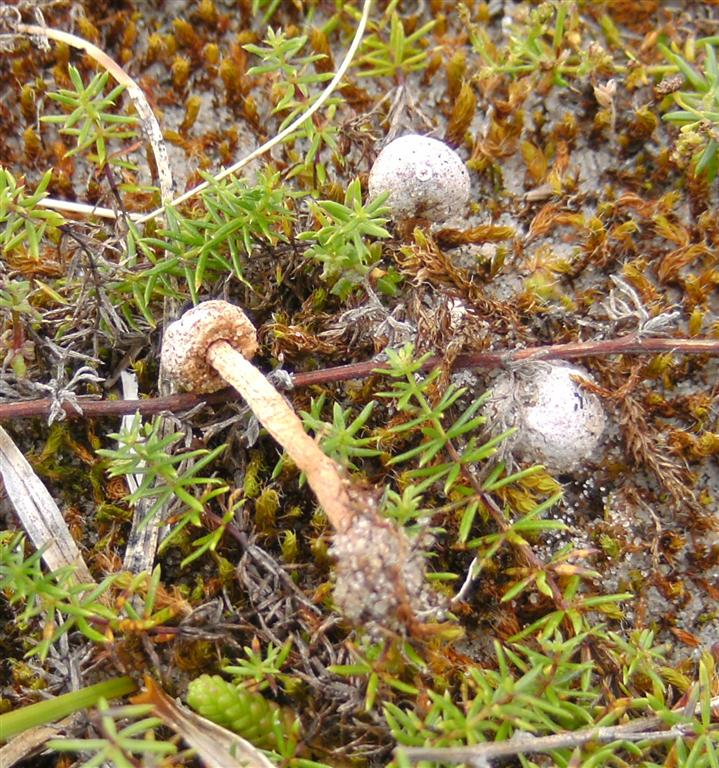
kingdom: Fungi
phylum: Basidiomycota
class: Agaricomycetes
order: Agaricales
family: Agaricaceae
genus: Tulostoma
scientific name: Tulostoma brumale
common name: vinter-stilkbovist
